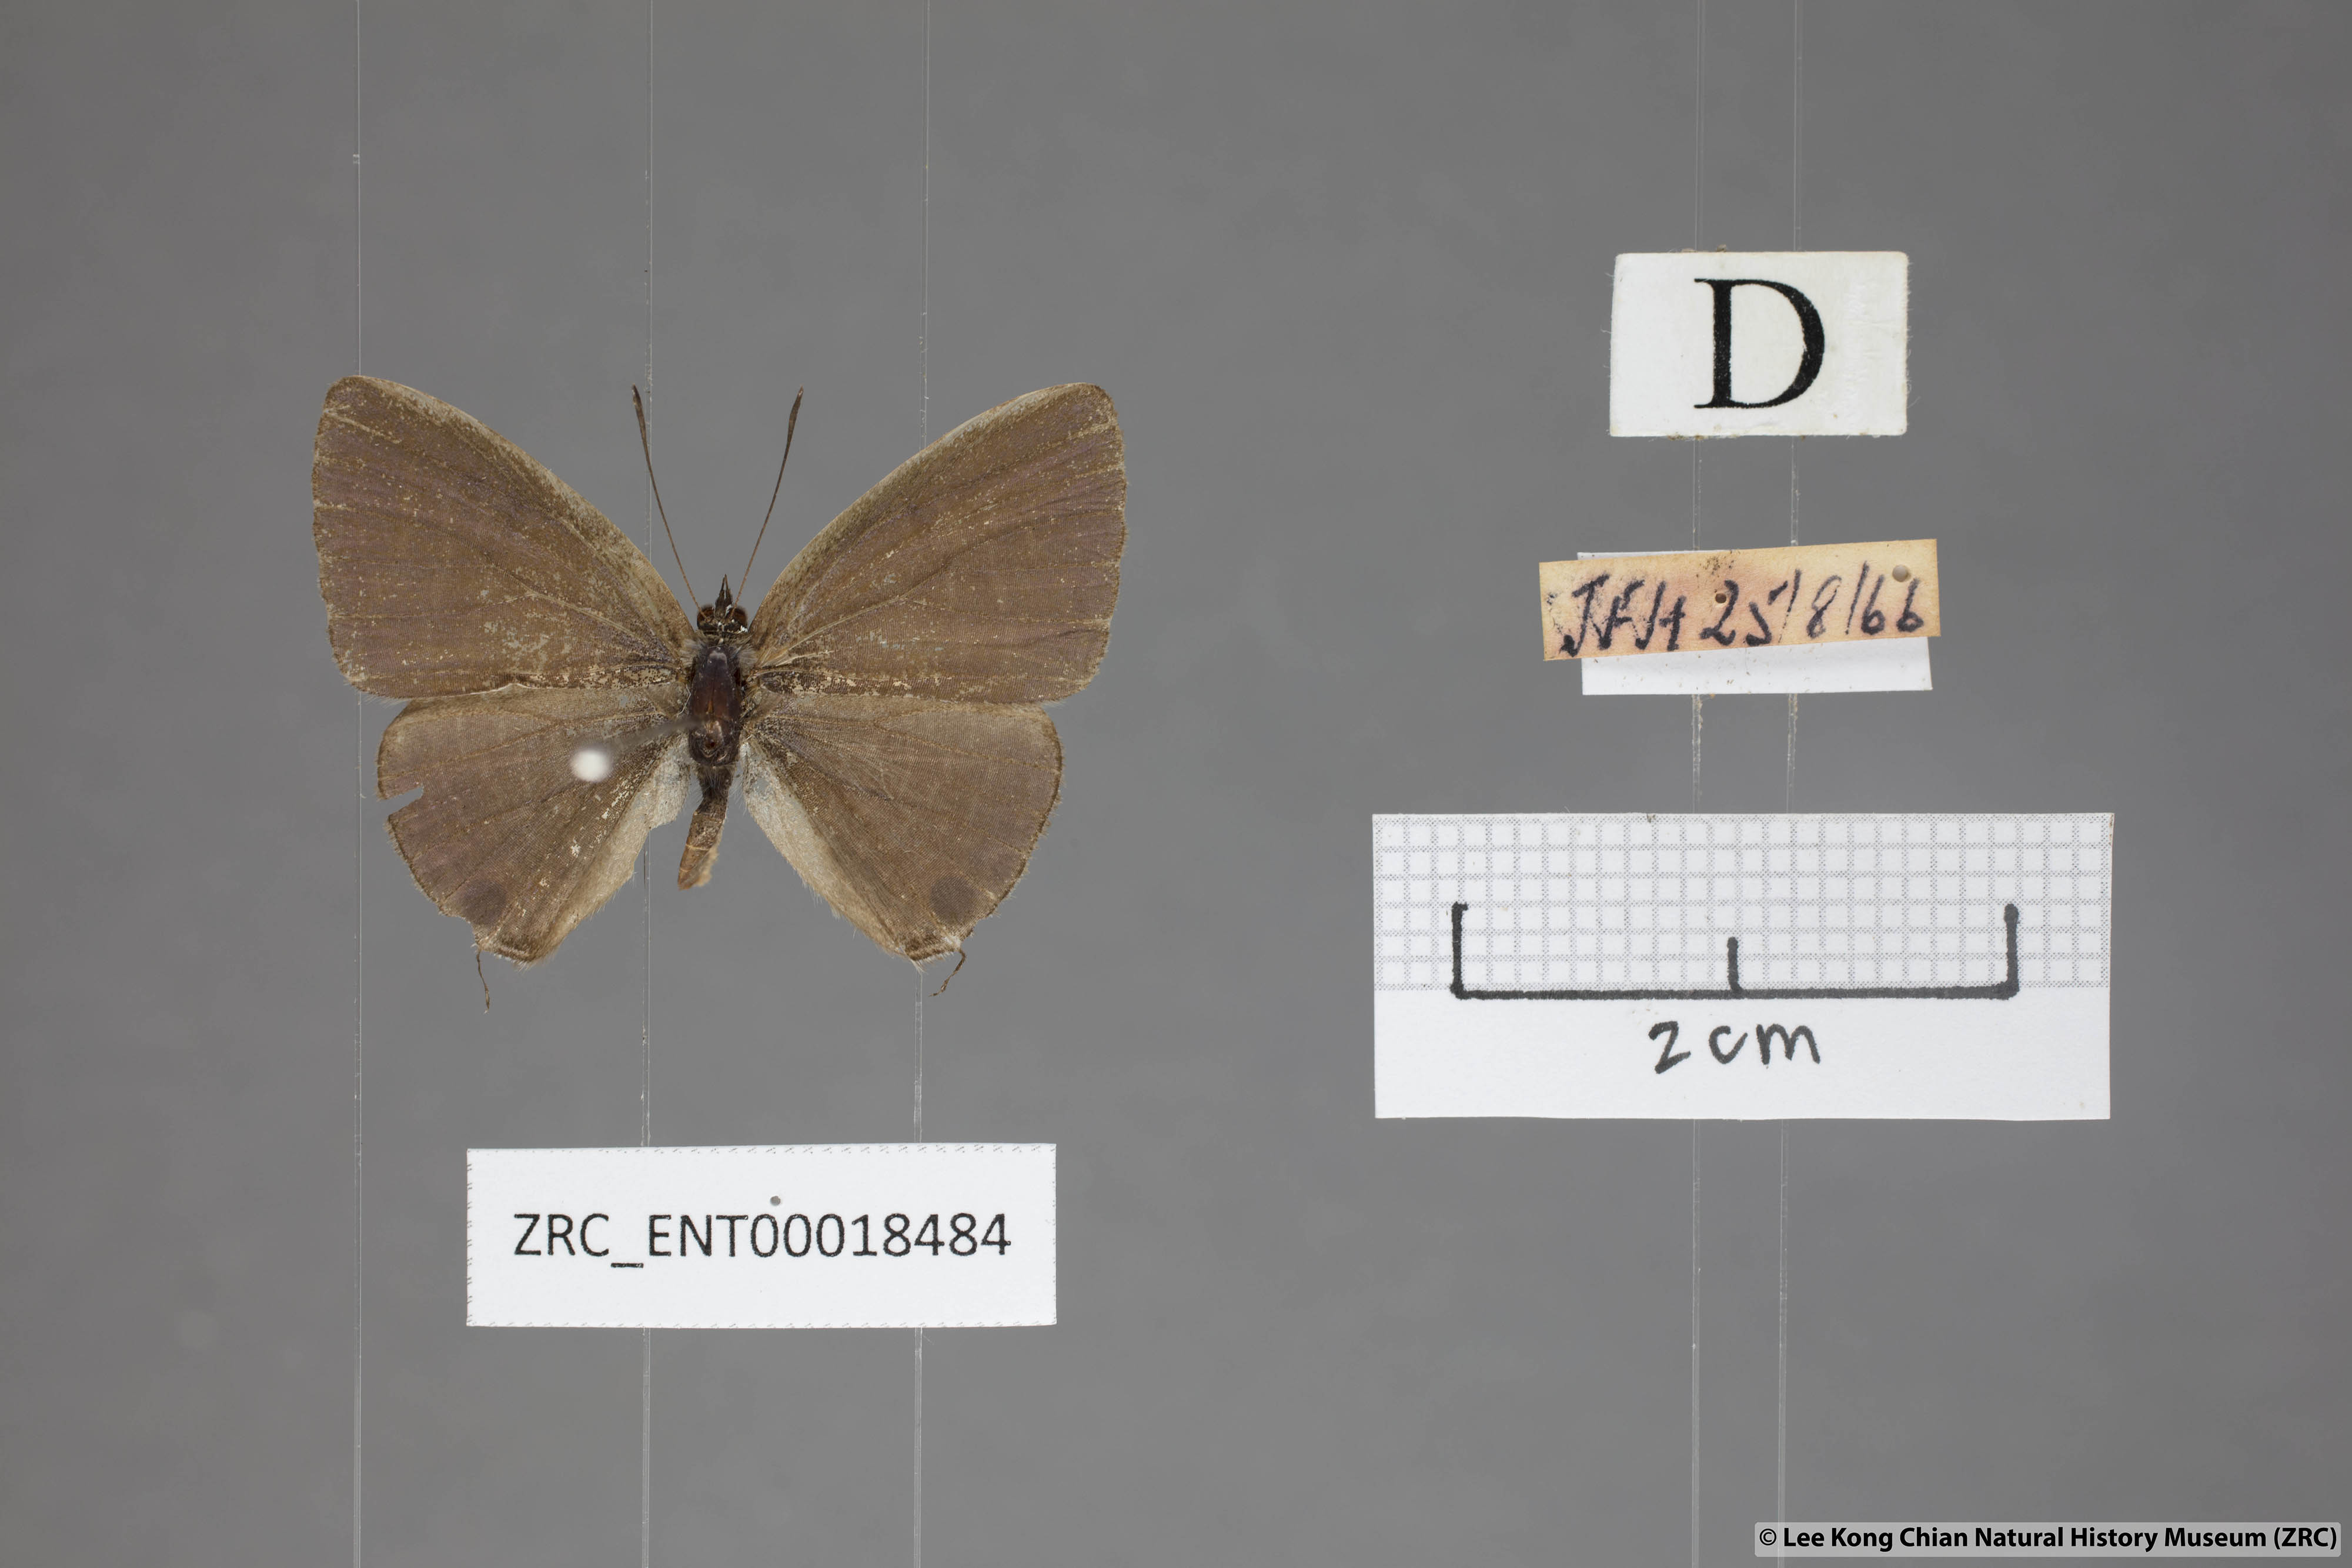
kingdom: Animalia
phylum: Arthropoda
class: Insecta
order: Lepidoptera
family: Lycaenidae
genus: Nacaduba
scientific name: Nacaduba subperusia
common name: Violet fourline blue
